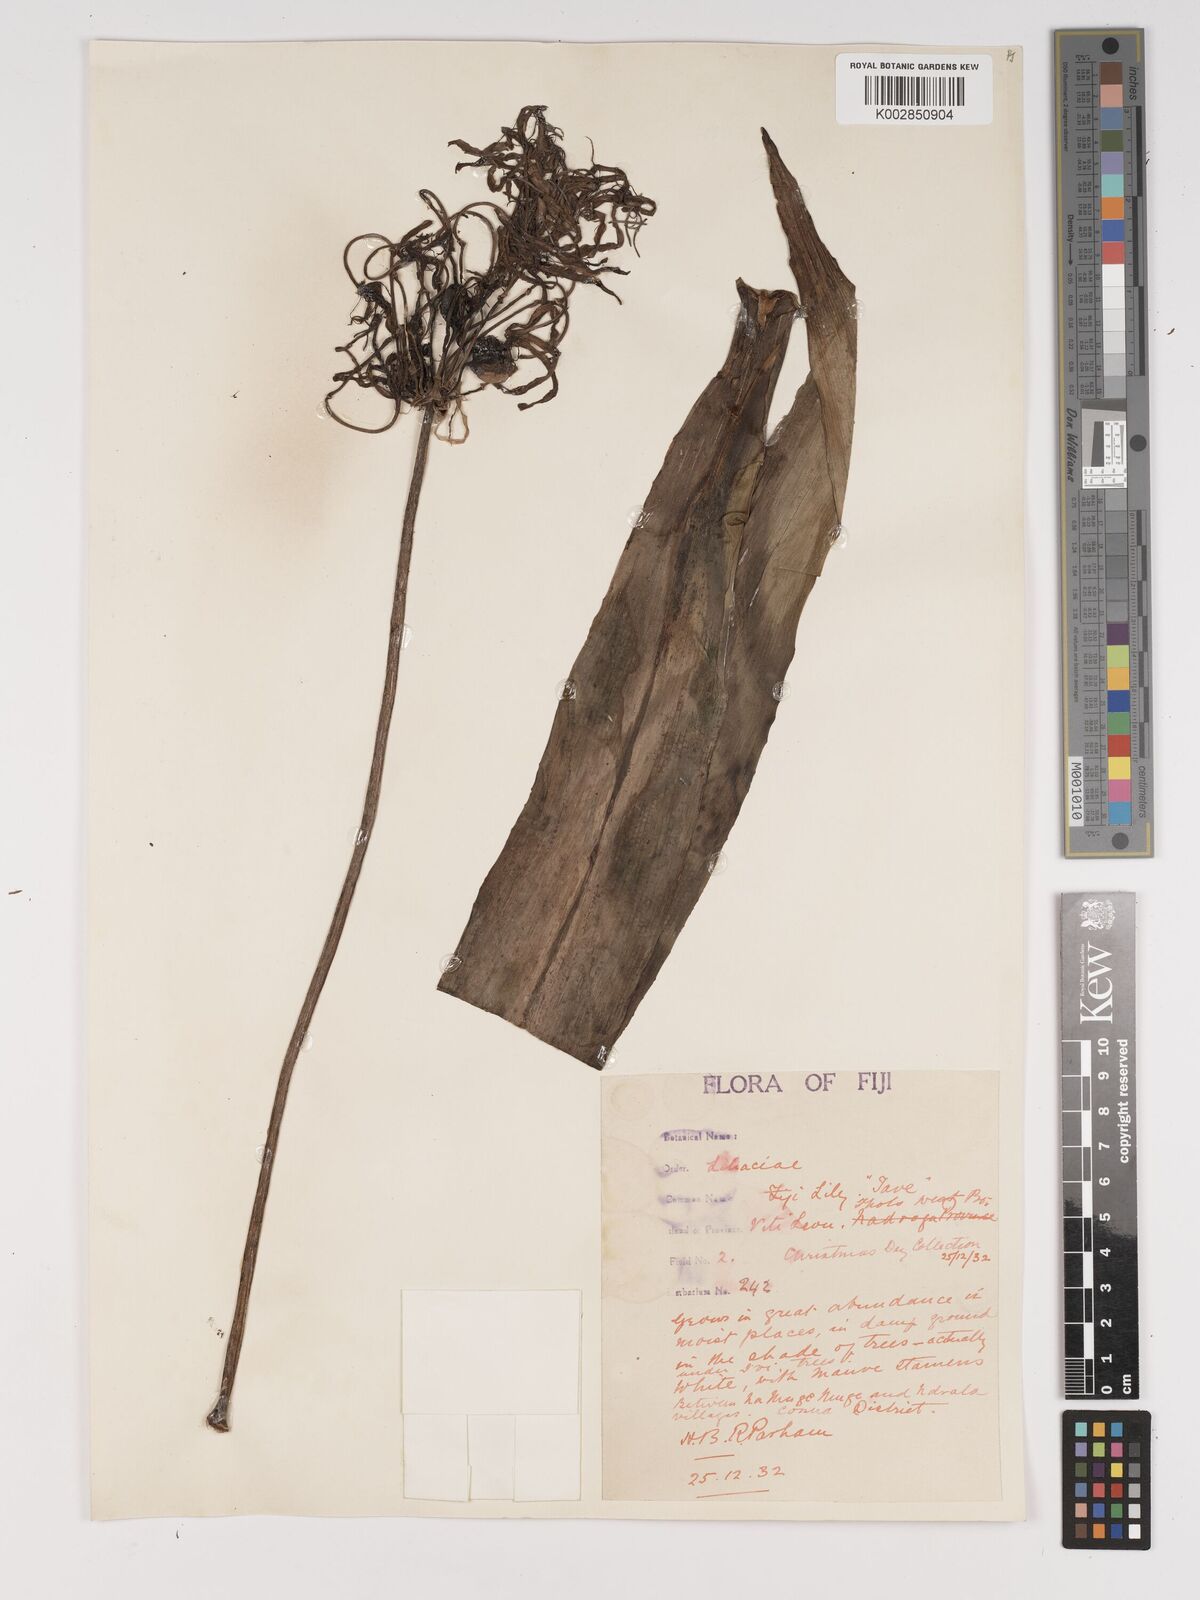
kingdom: Plantae
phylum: Tracheophyta
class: Liliopsida
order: Asparagales
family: Amaryllidaceae
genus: Crinum
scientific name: Crinum asiaticum
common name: Poisonbulb
